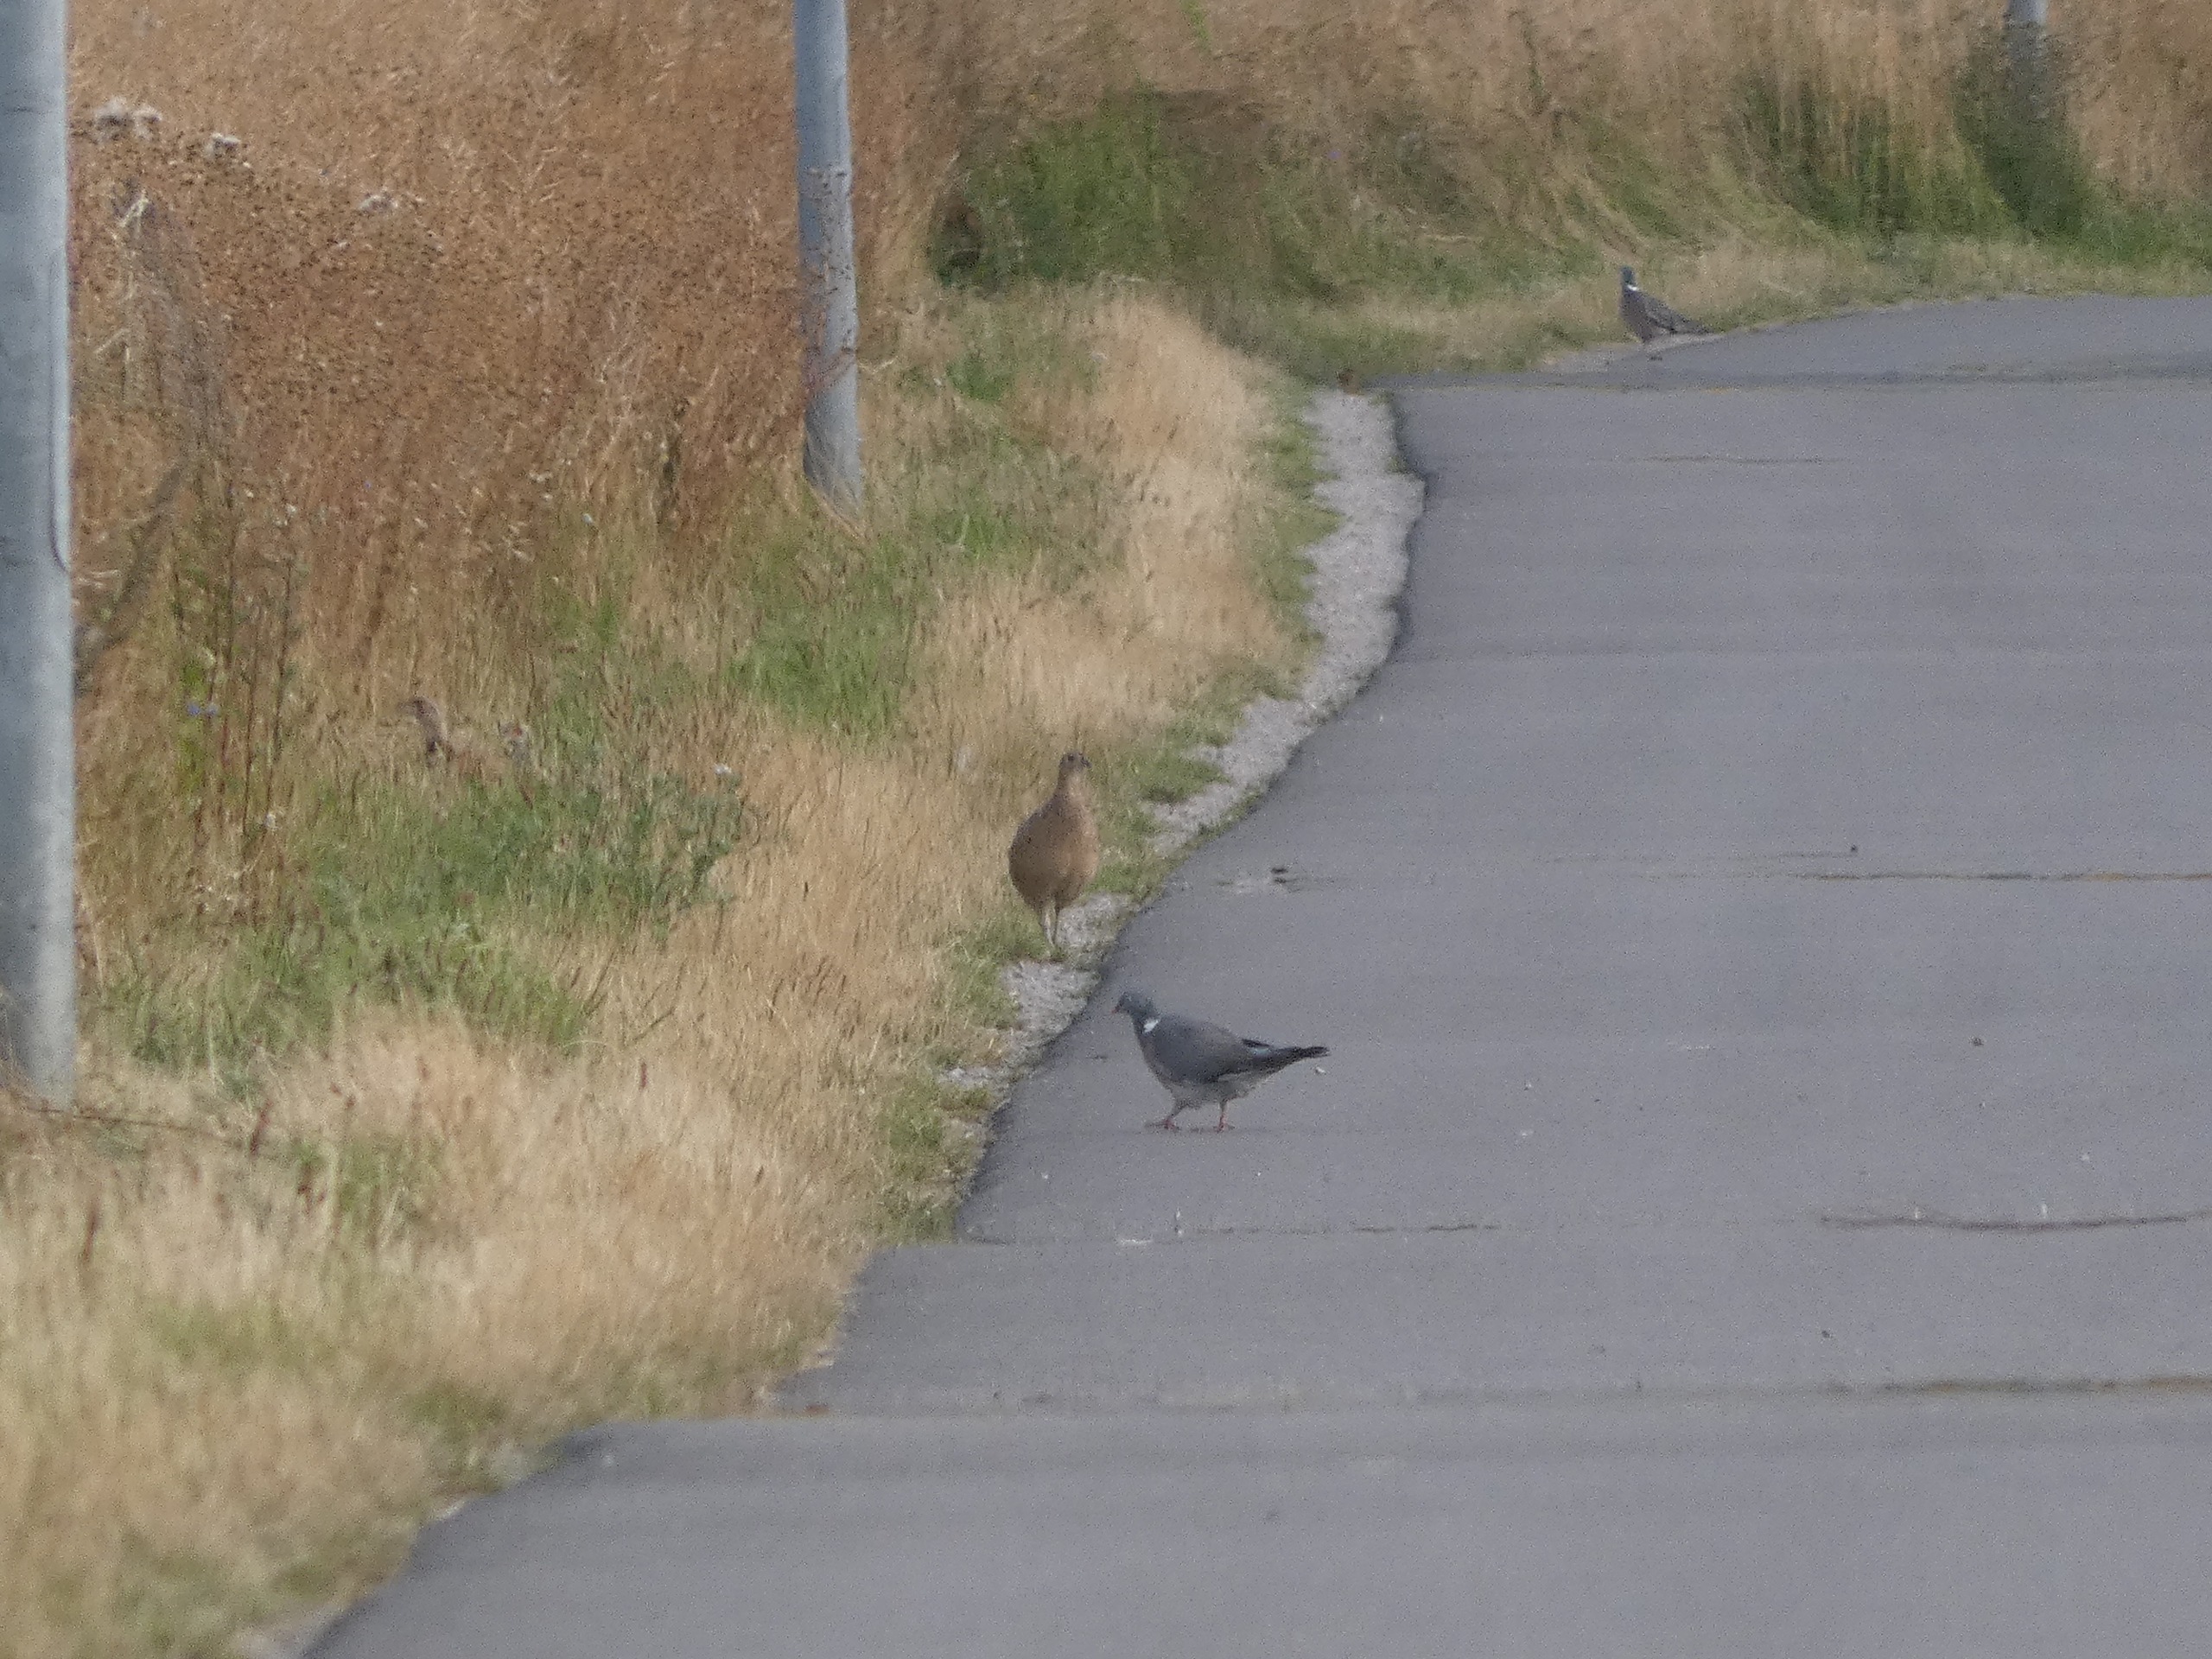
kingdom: Animalia
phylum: Chordata
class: Aves
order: Columbiformes
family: Columbidae
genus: Columba
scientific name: Columba palumbus
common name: Ringdue
